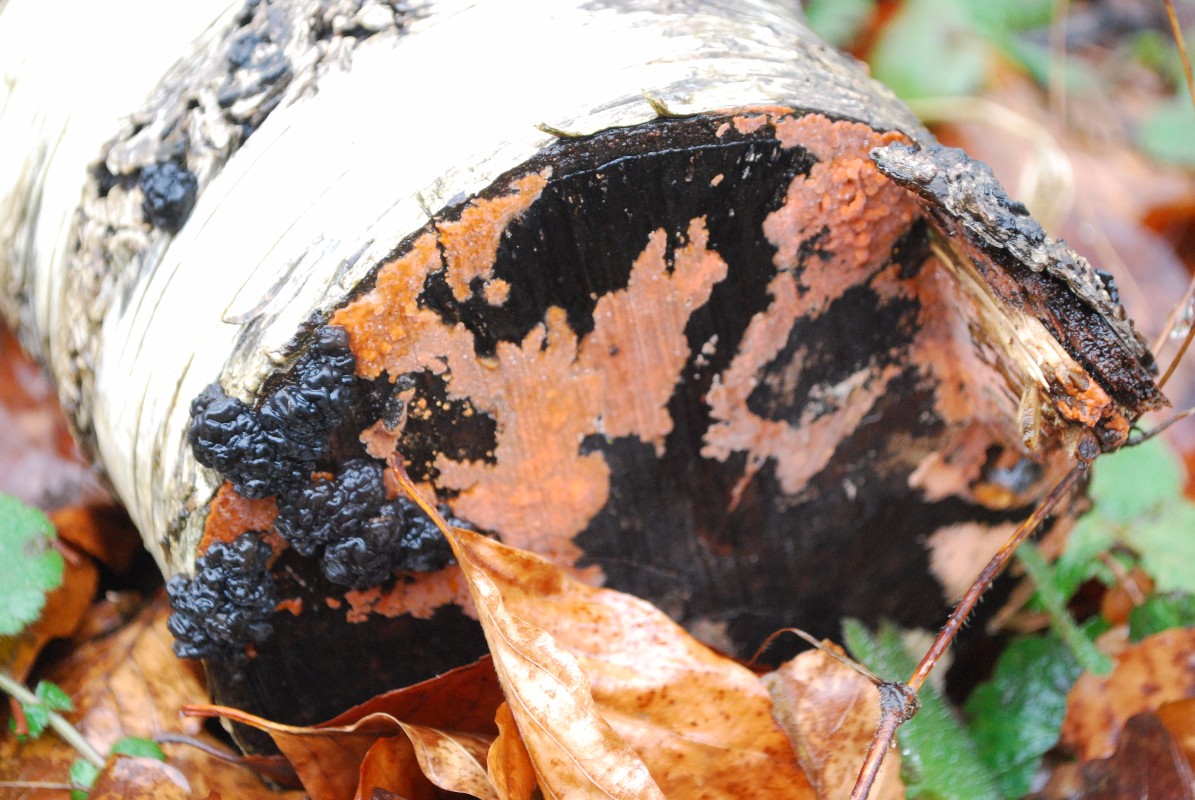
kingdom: Fungi
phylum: Basidiomycota
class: Agaricomycetes
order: Auriculariales
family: Auriculariaceae
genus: Exidia
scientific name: Exidia nigricans
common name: almindelig bævretop
